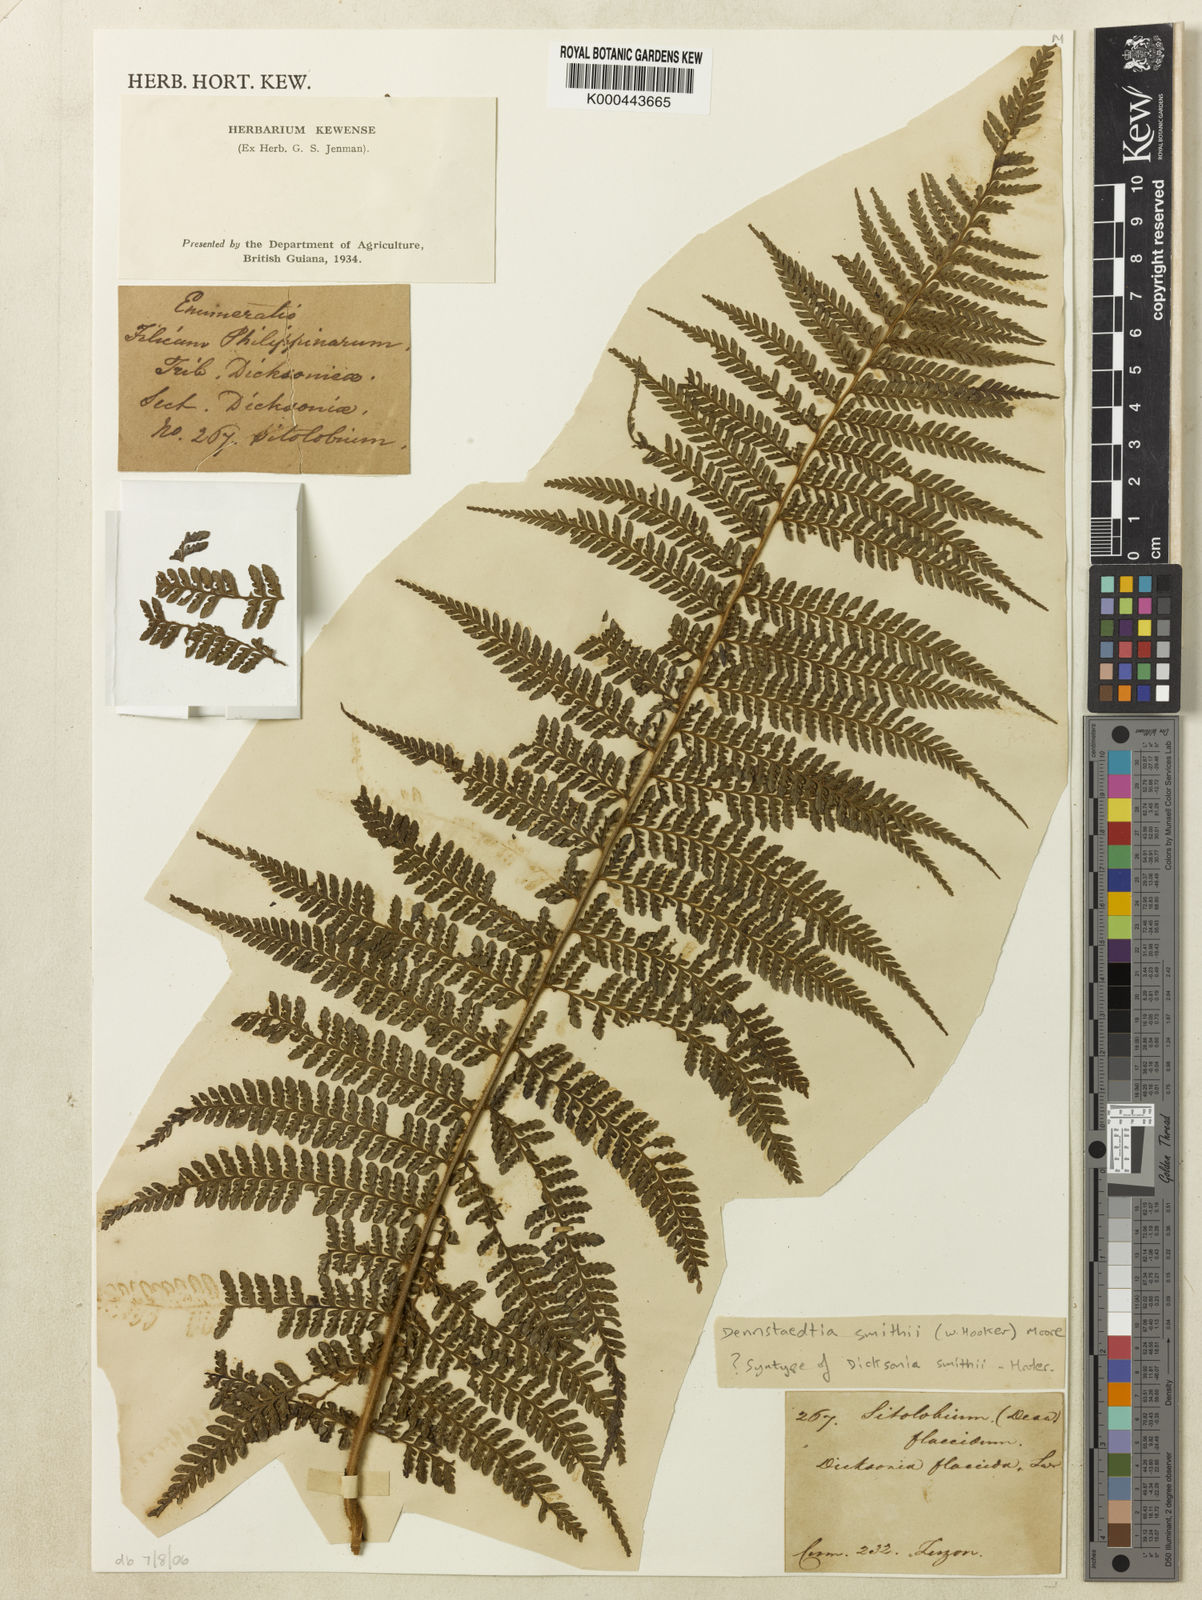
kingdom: Plantae
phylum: Tracheophyta
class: Polypodiopsida
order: Polypodiales
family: Dennstaedtiaceae
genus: Microlepia
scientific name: Microlepia smithii
